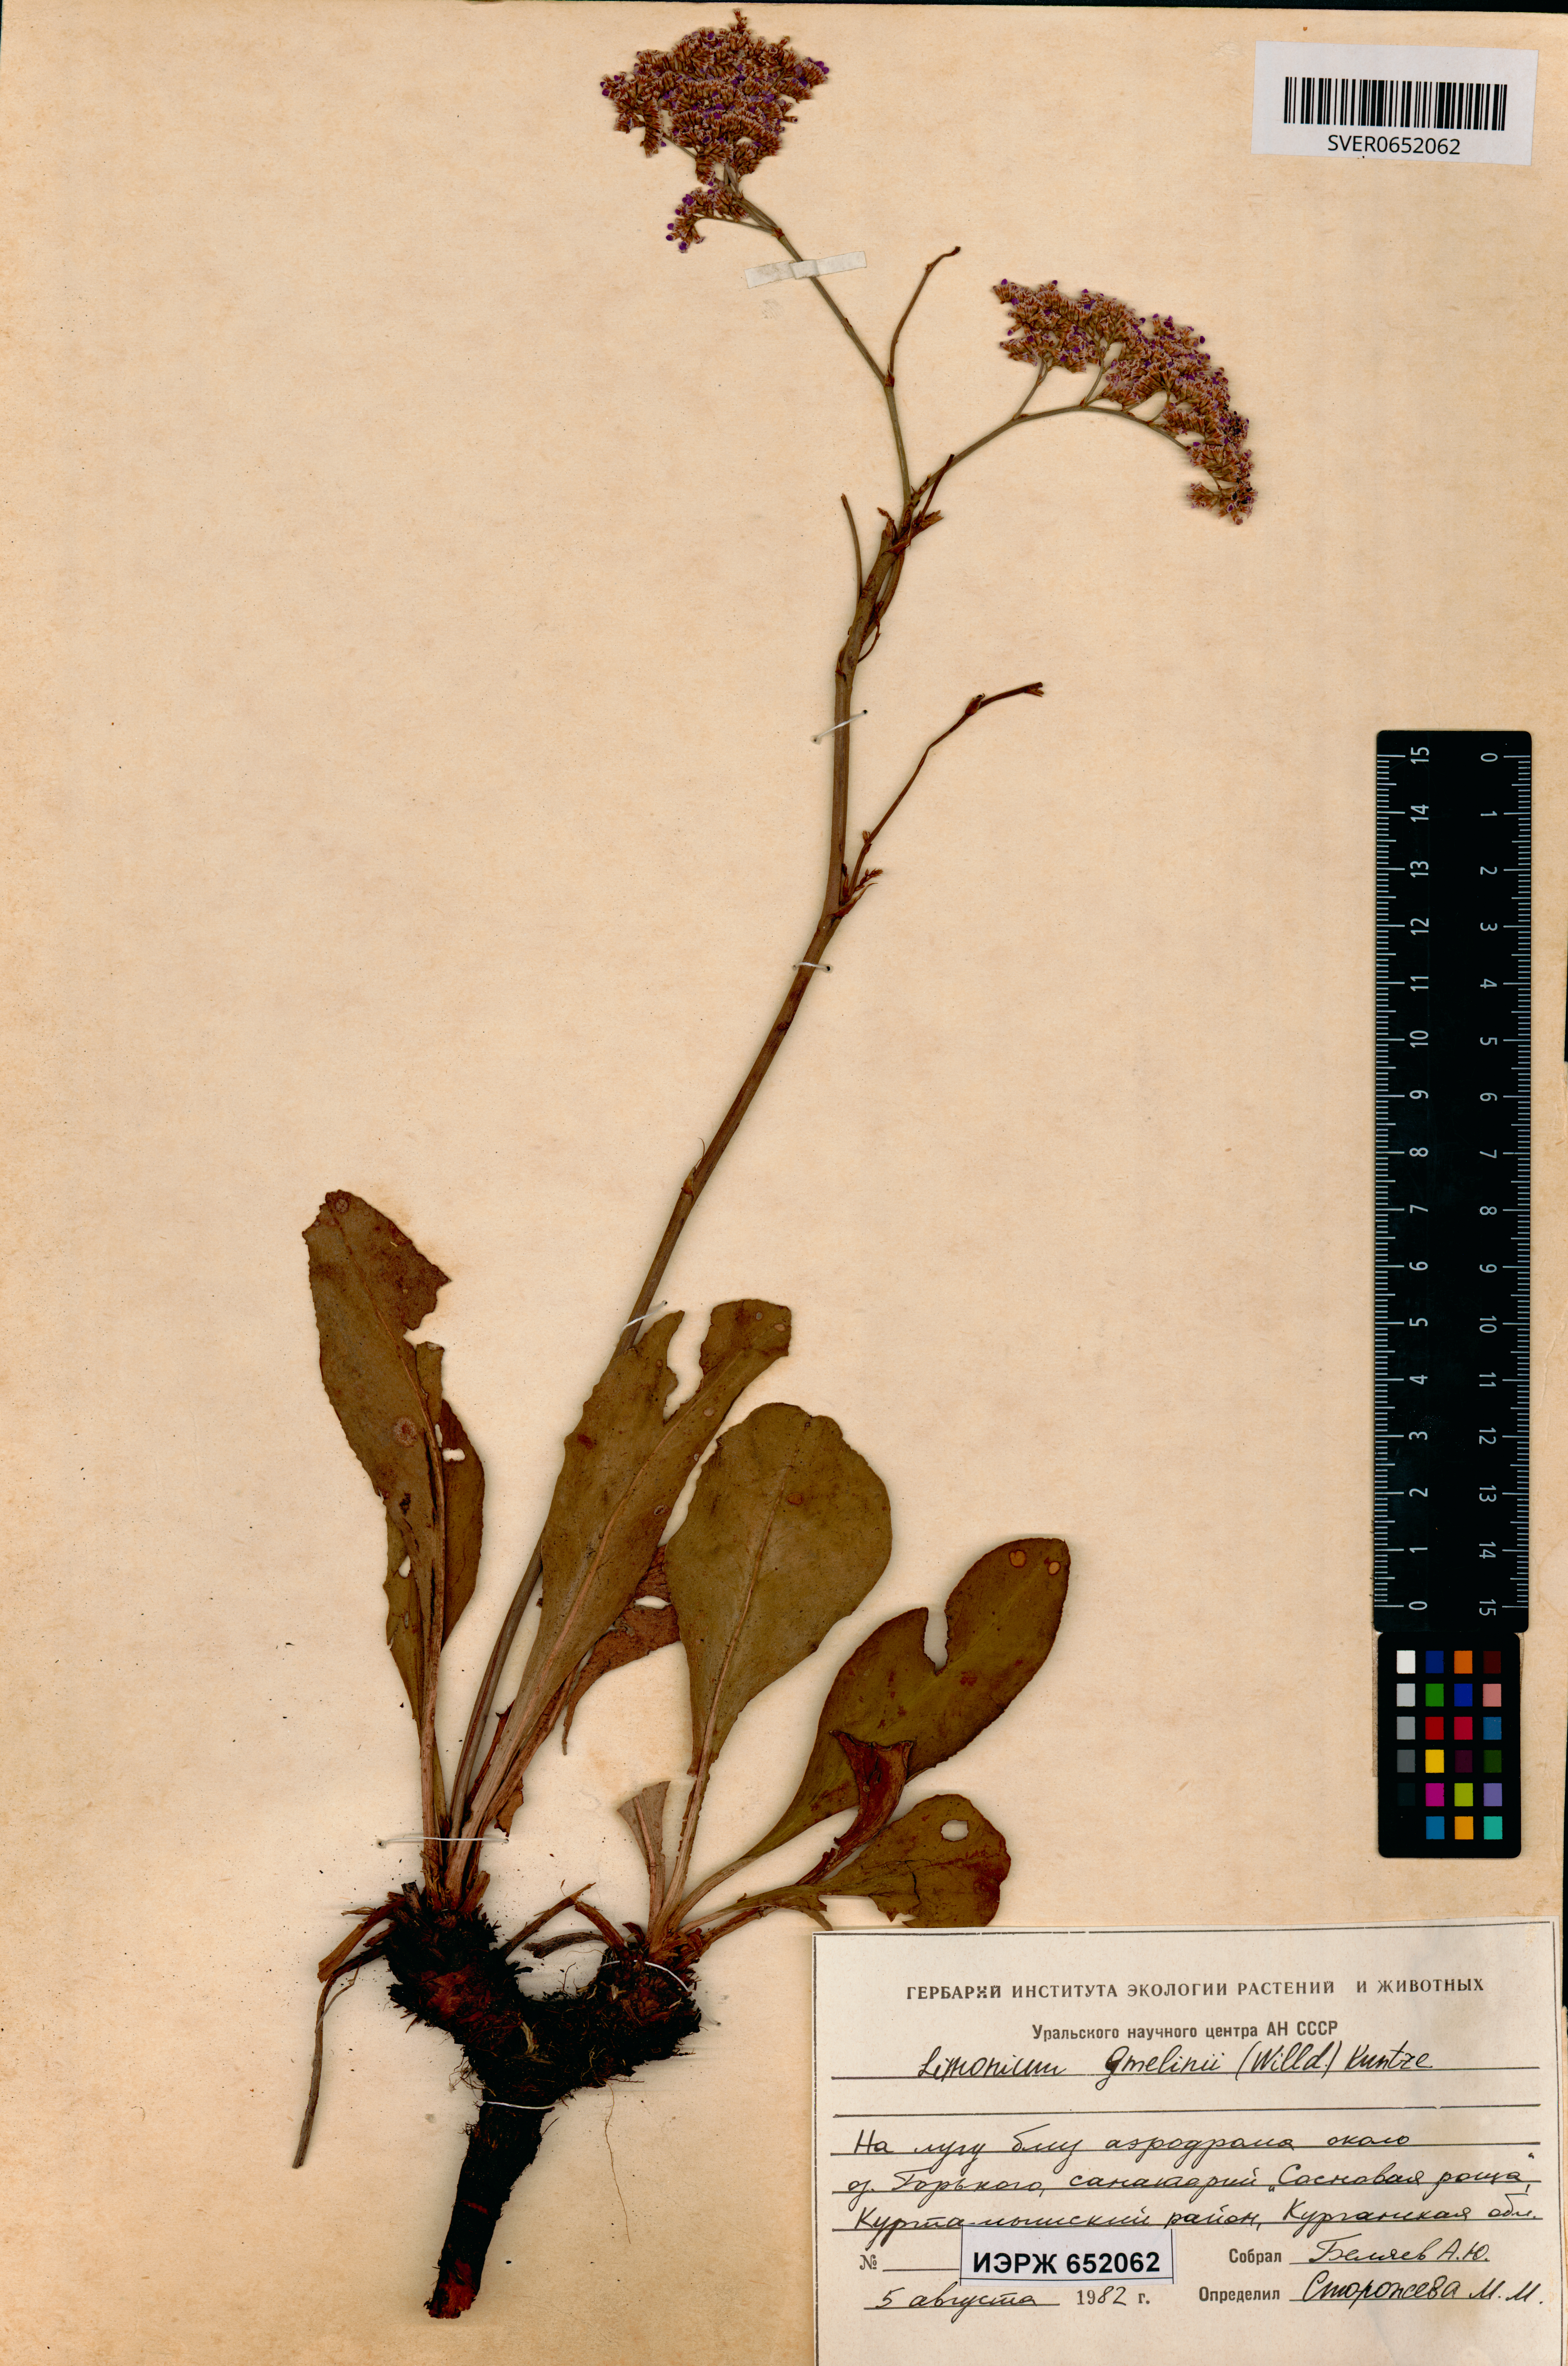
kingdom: Plantae
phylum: Tracheophyta
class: Magnoliopsida
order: Caryophyllales
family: Plumbaginaceae
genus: Limonium
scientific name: Limonium gmelini
